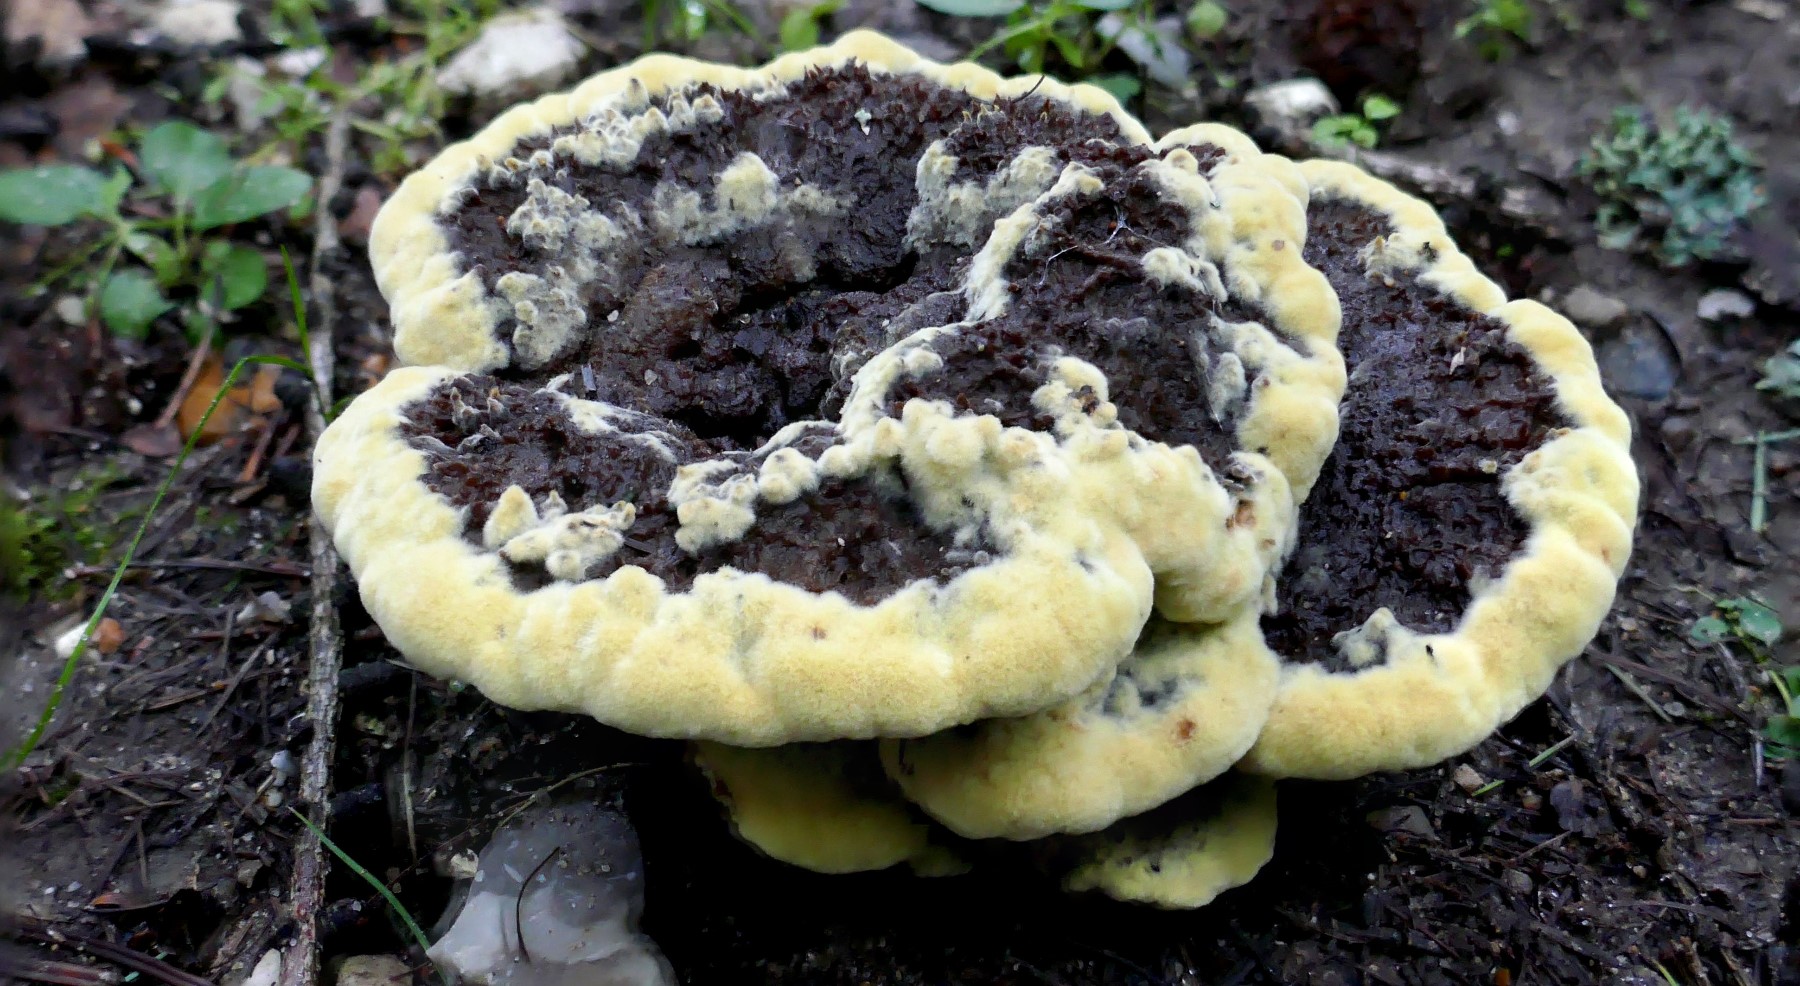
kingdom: Fungi
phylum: Basidiomycota
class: Agaricomycetes
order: Polyporales
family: Laetiporaceae
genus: Phaeolus
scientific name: Phaeolus schweinitzii
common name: brunporesvamp
